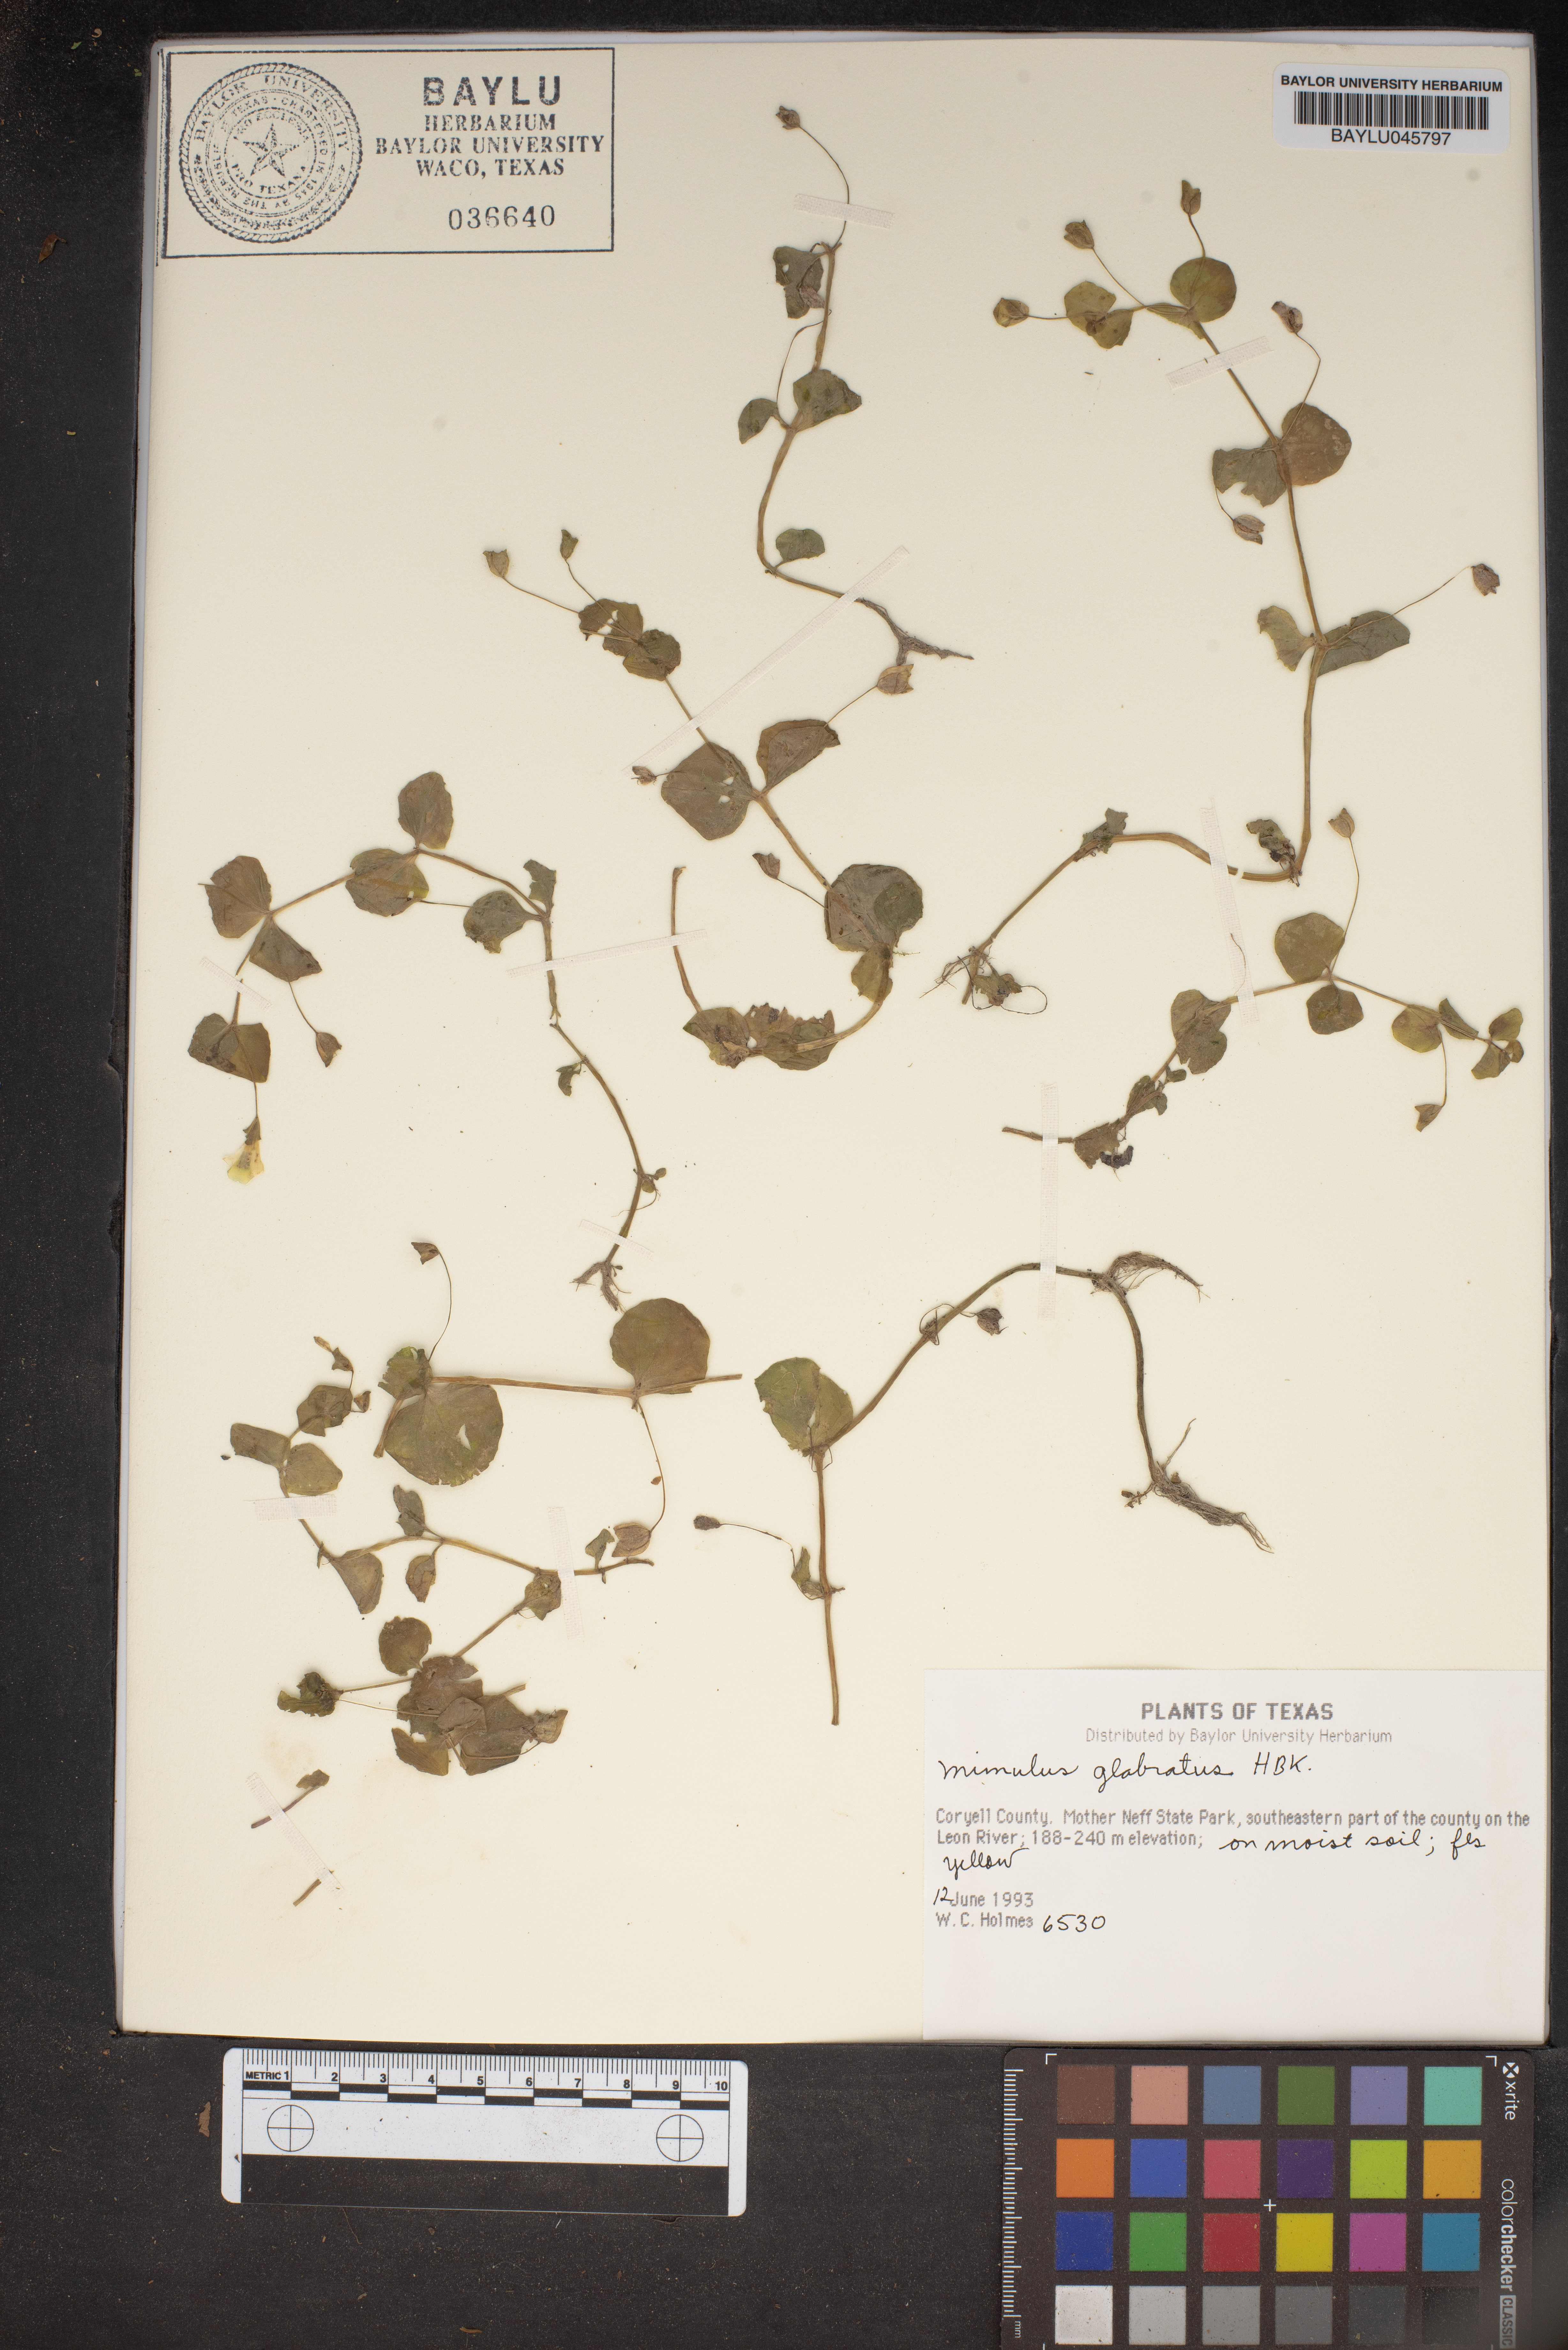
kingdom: Plantae
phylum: Tracheophyta
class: Magnoliopsida
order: Lamiales
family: Phrymaceae
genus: Erythranthe
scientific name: Erythranthe glabrata
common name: Round-leaved monkeyflower
